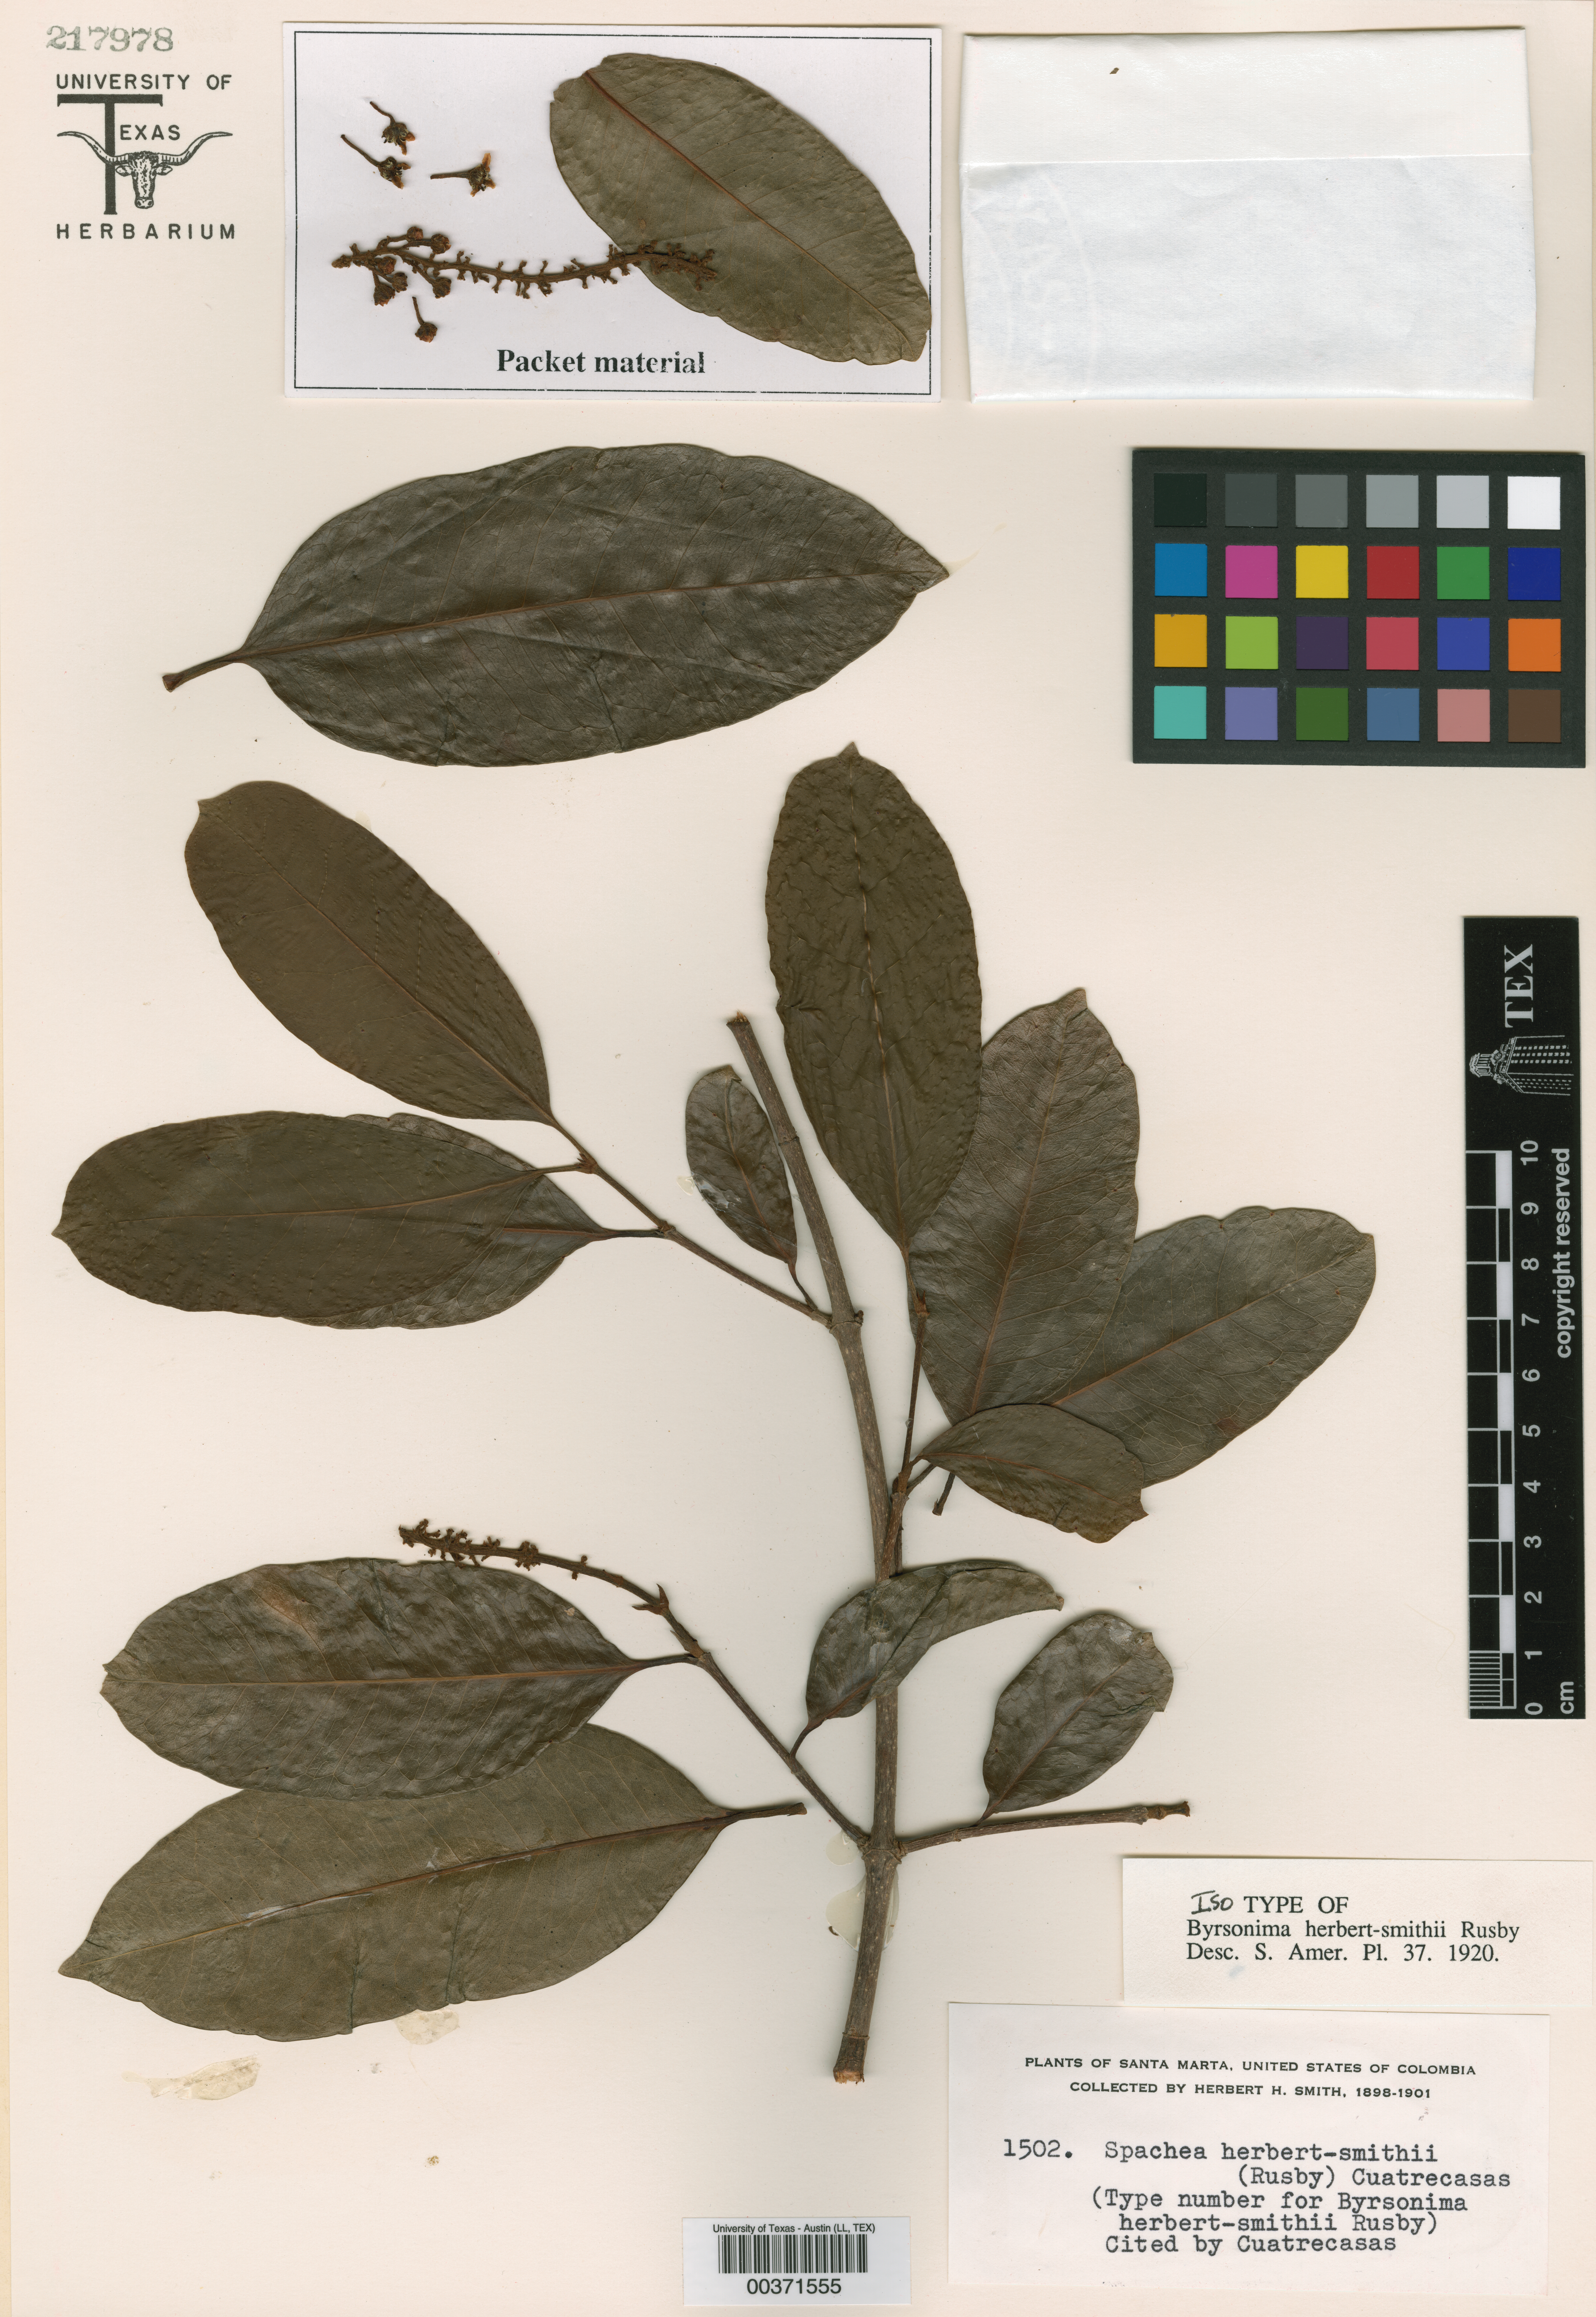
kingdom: Plantae
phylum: Tracheophyta
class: Magnoliopsida
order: Malpighiales
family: Malpighiaceae
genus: Spachea
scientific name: Spachea elegans
